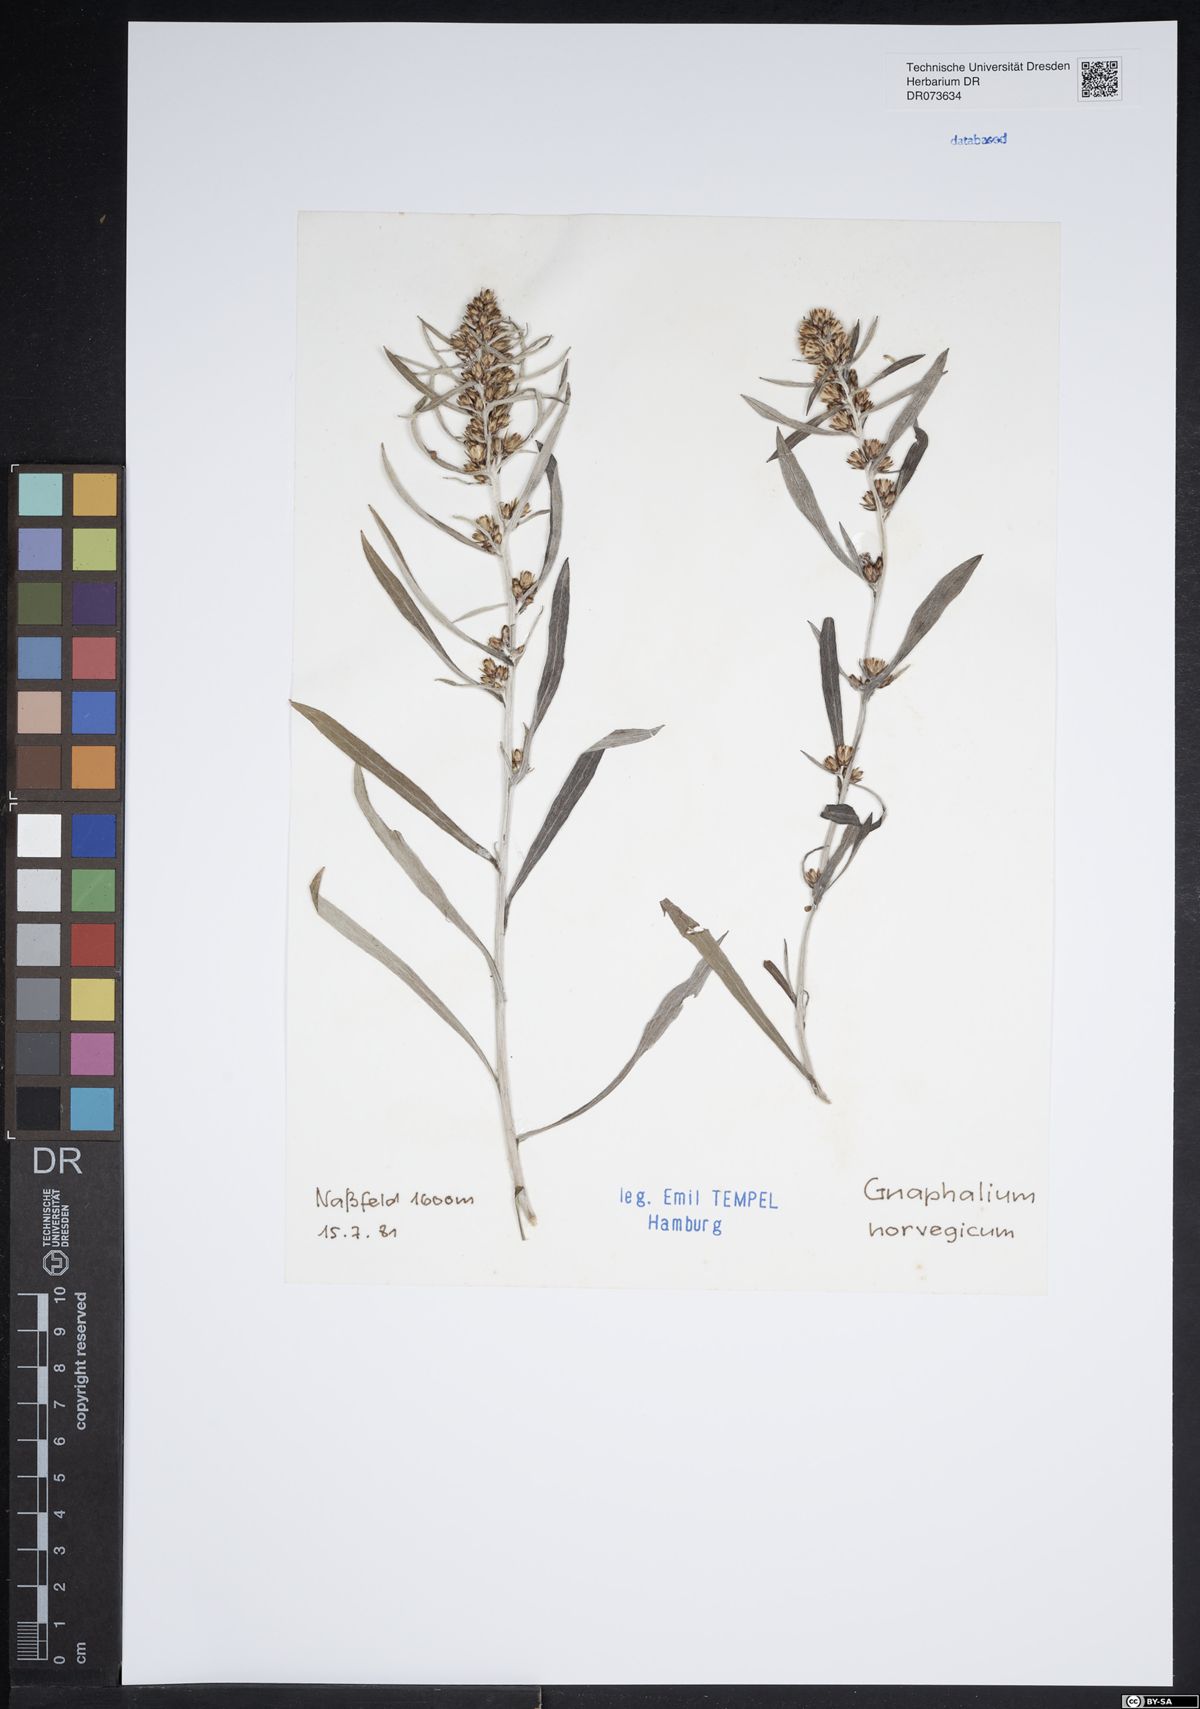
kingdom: Plantae
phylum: Tracheophyta
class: Magnoliopsida
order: Asterales
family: Asteraceae
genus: Omalotheca
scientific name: Omalotheca norvegica
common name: Norwegian arctic-cudweed
